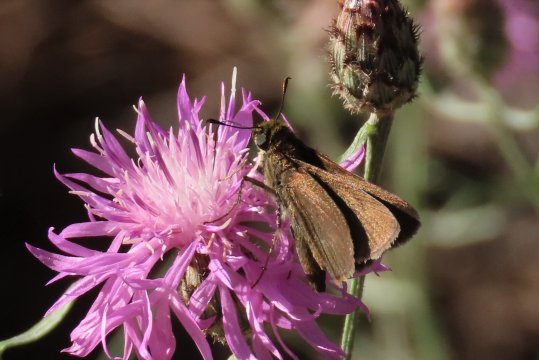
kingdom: Animalia
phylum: Arthropoda
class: Insecta
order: Lepidoptera
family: Hesperiidae
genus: Euphyes
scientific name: Euphyes vestris
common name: Dun Skipper
